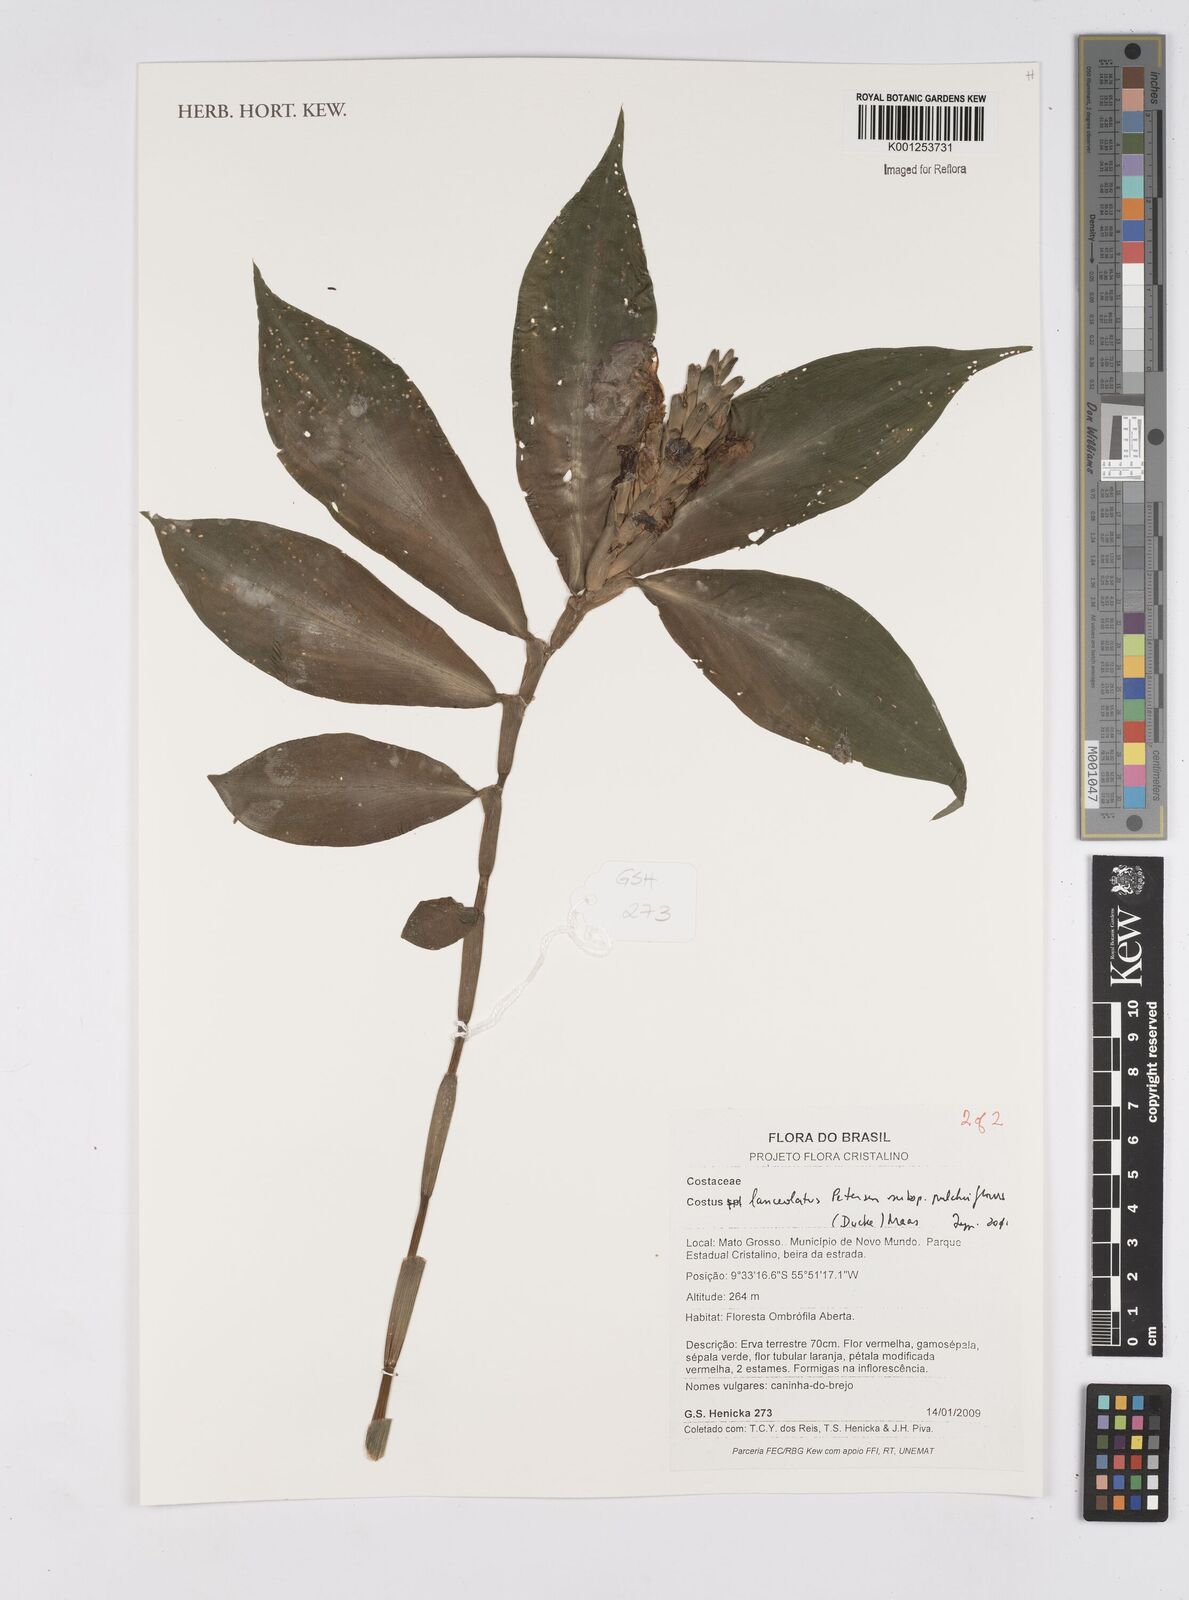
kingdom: Plantae
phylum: Tracheophyta
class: Liliopsida
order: Zingiberales
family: Costaceae
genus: Chamaecostus
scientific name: Chamaecostus lanceolatus
